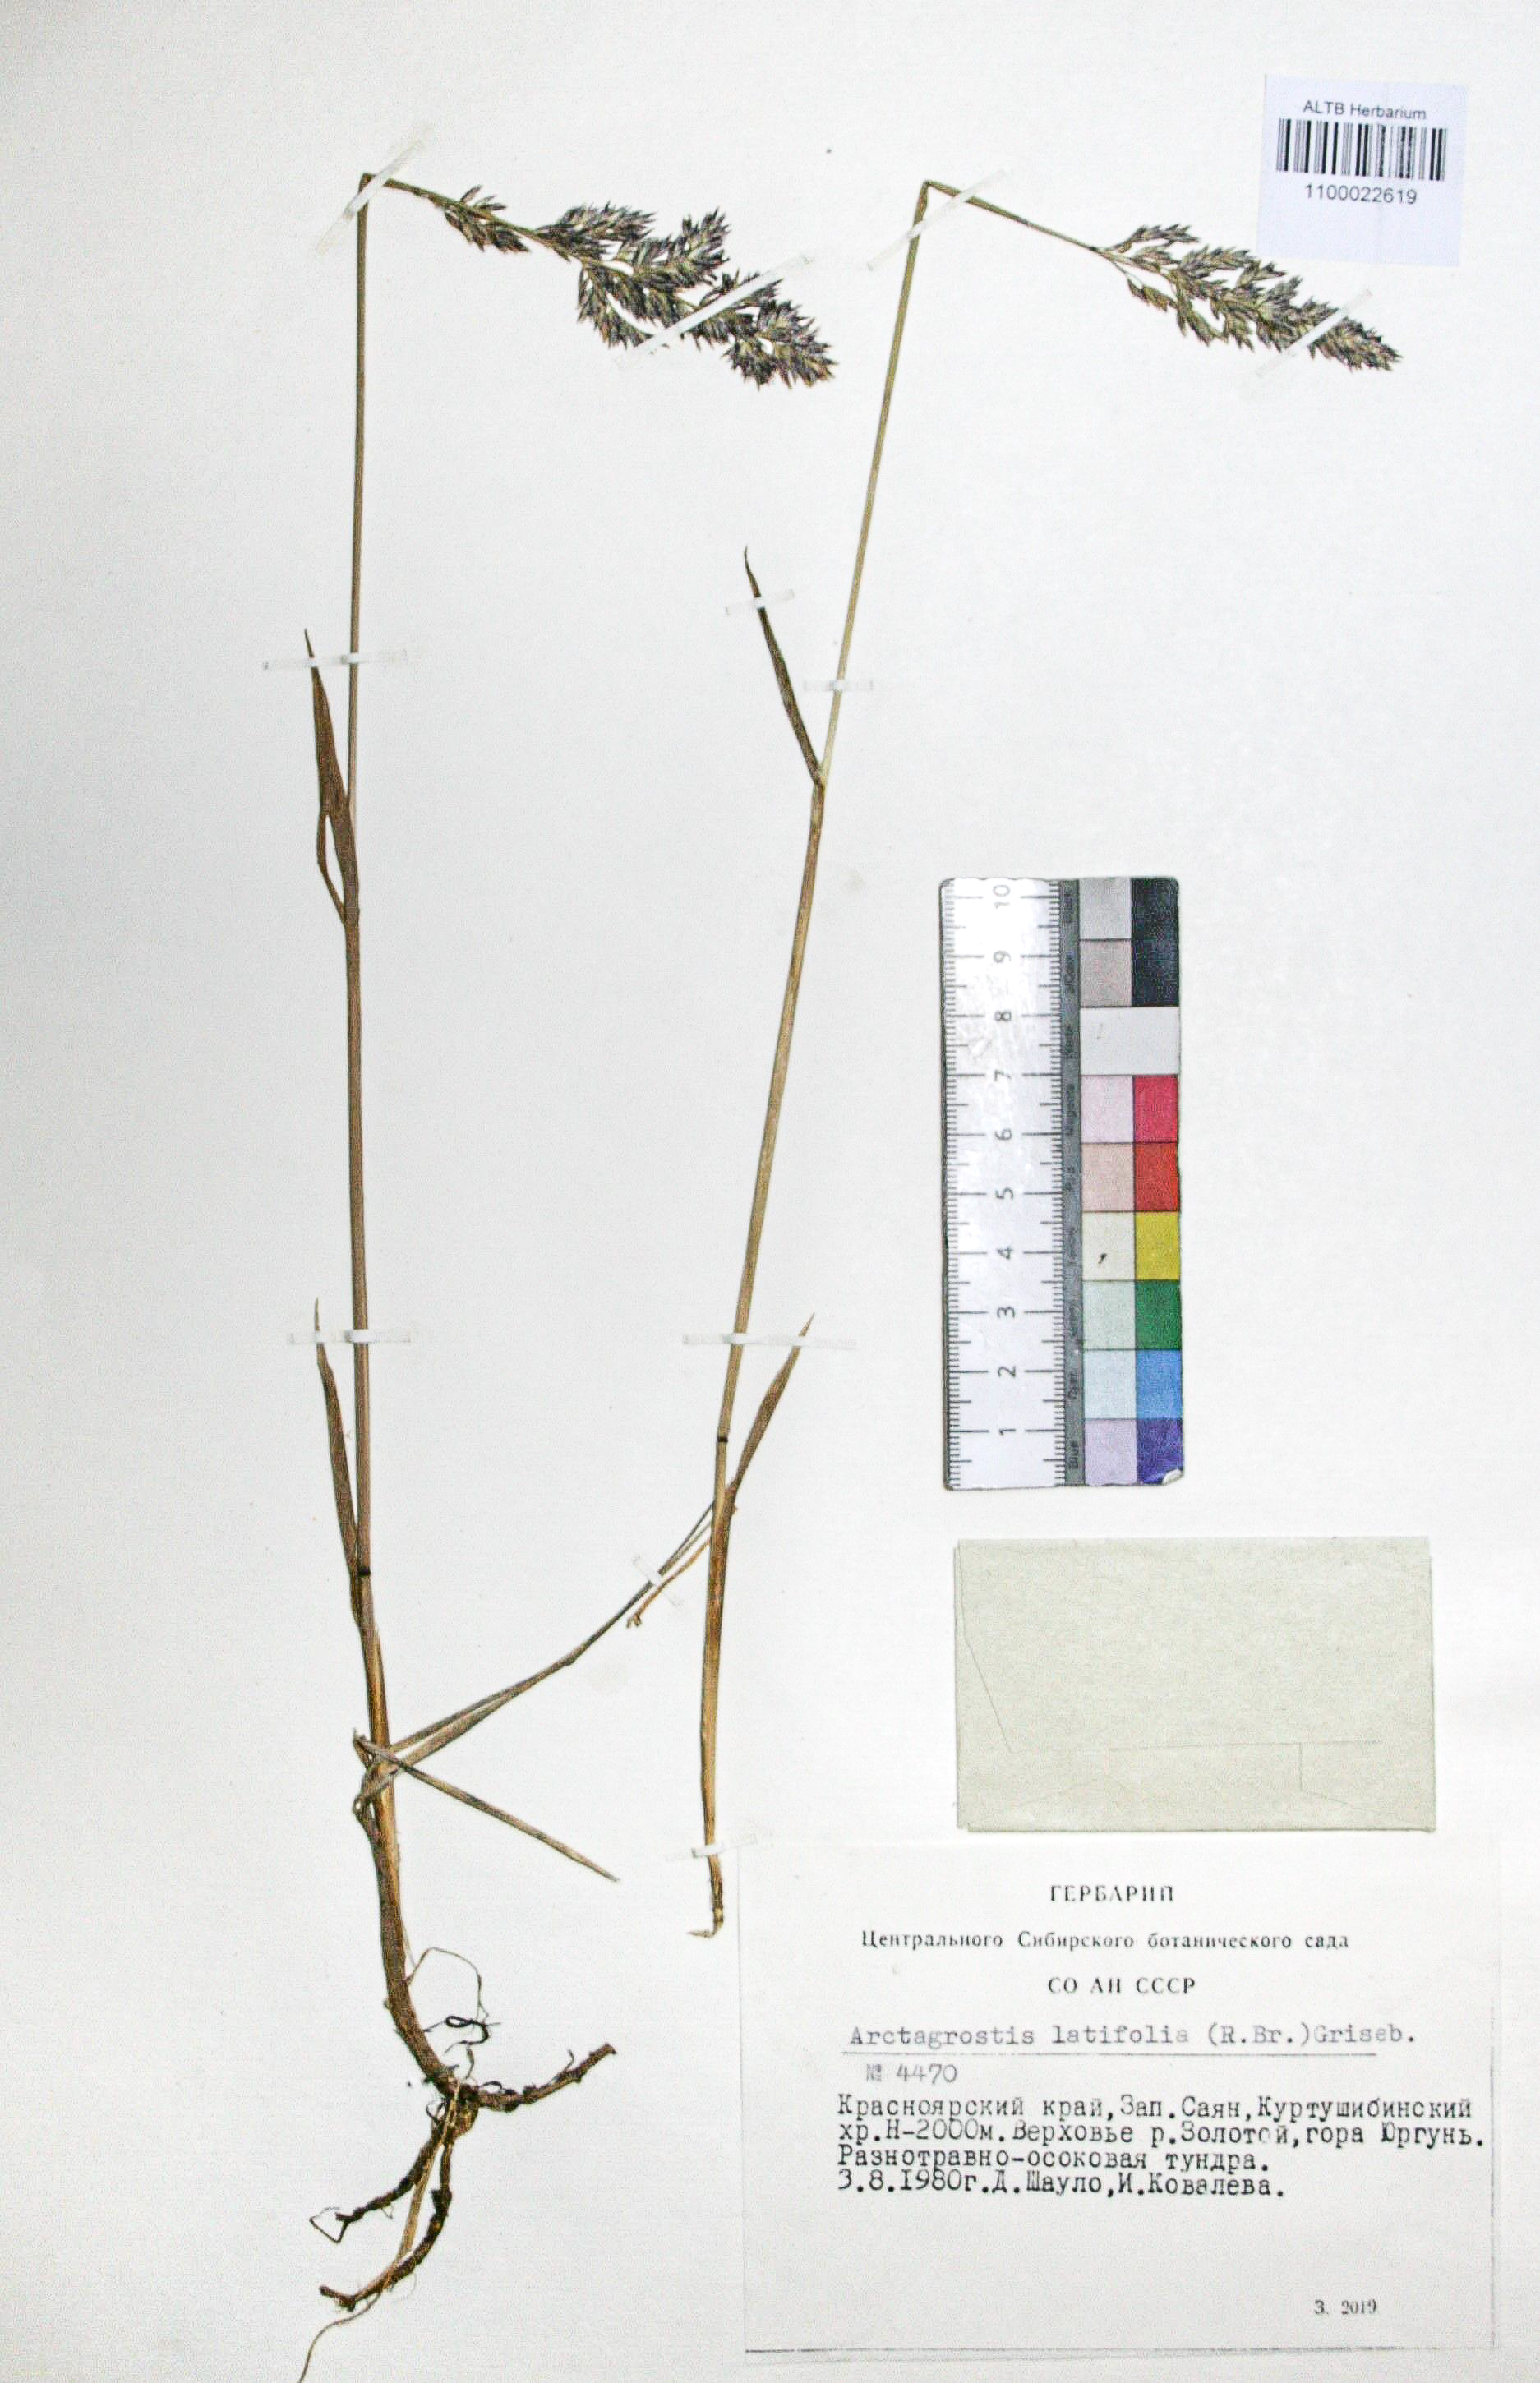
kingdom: Plantae
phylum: Tracheophyta
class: Liliopsida
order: Poales
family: Poaceae
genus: Arctagrostis
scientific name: Arctagrostis latifolia
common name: Arctic grass
